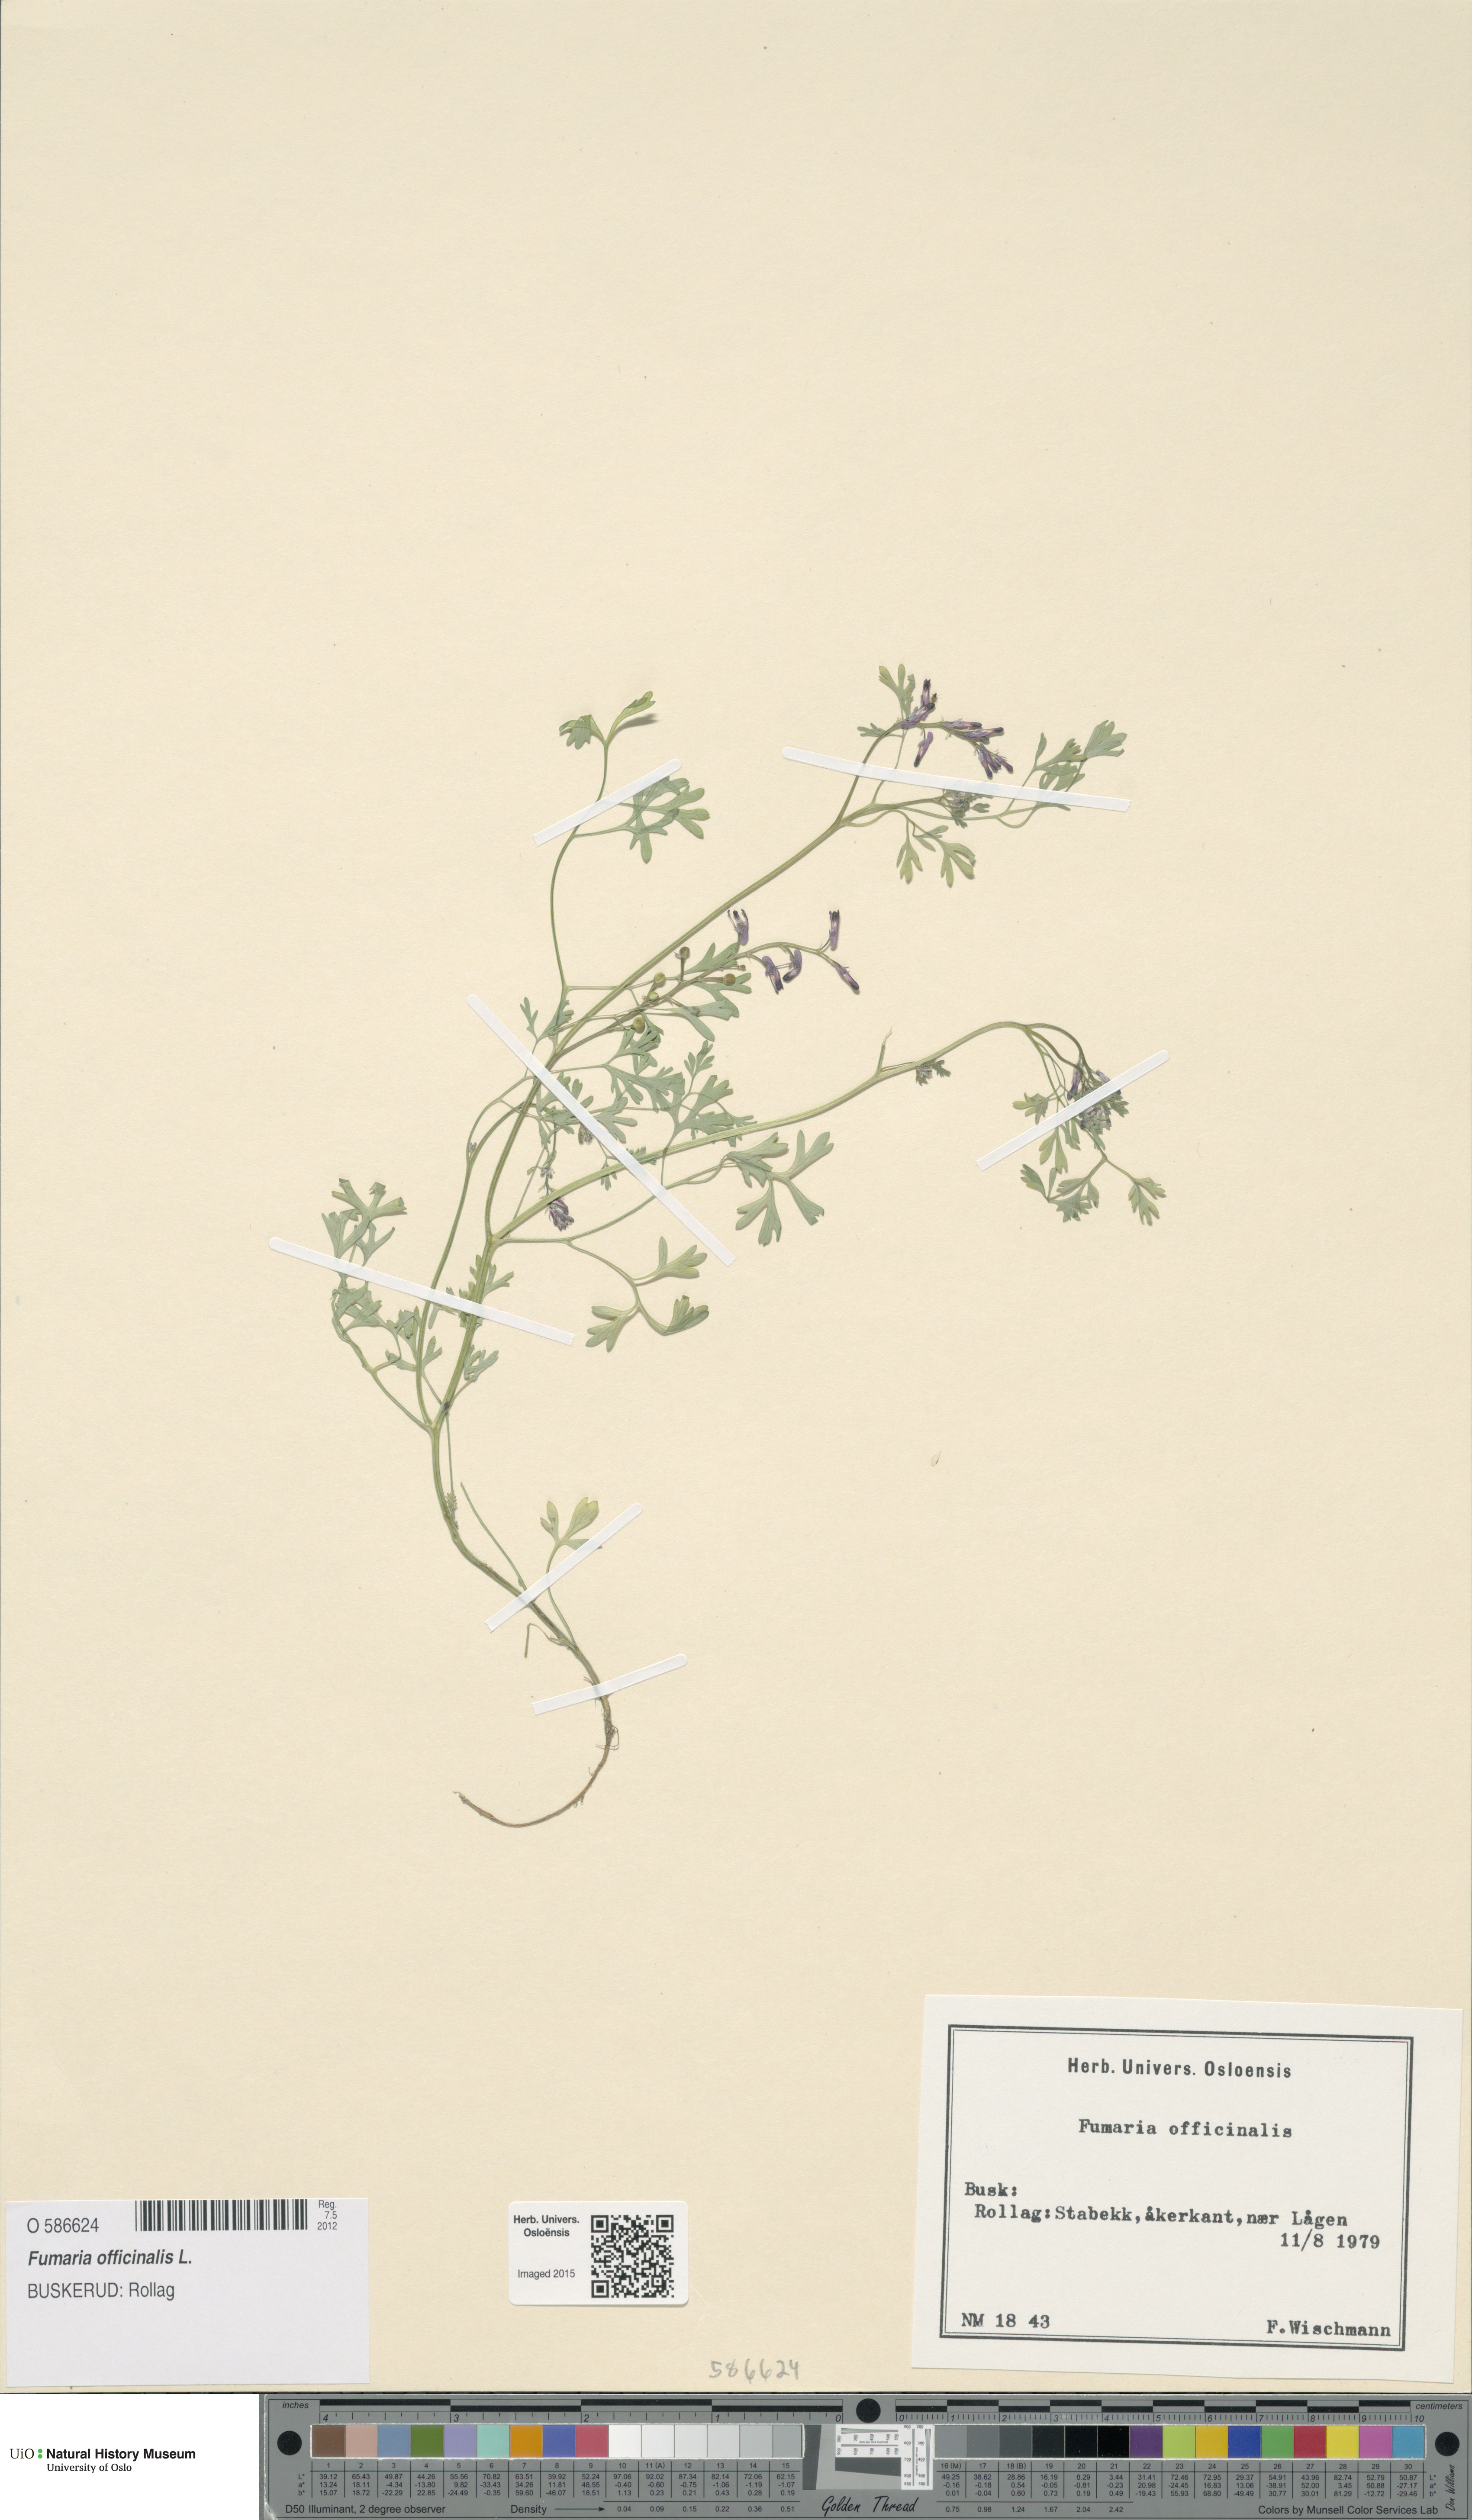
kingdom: Plantae
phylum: Tracheophyta
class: Magnoliopsida
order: Ranunculales
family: Papaveraceae
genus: Fumaria
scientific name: Fumaria officinalis
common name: Common fumitory
